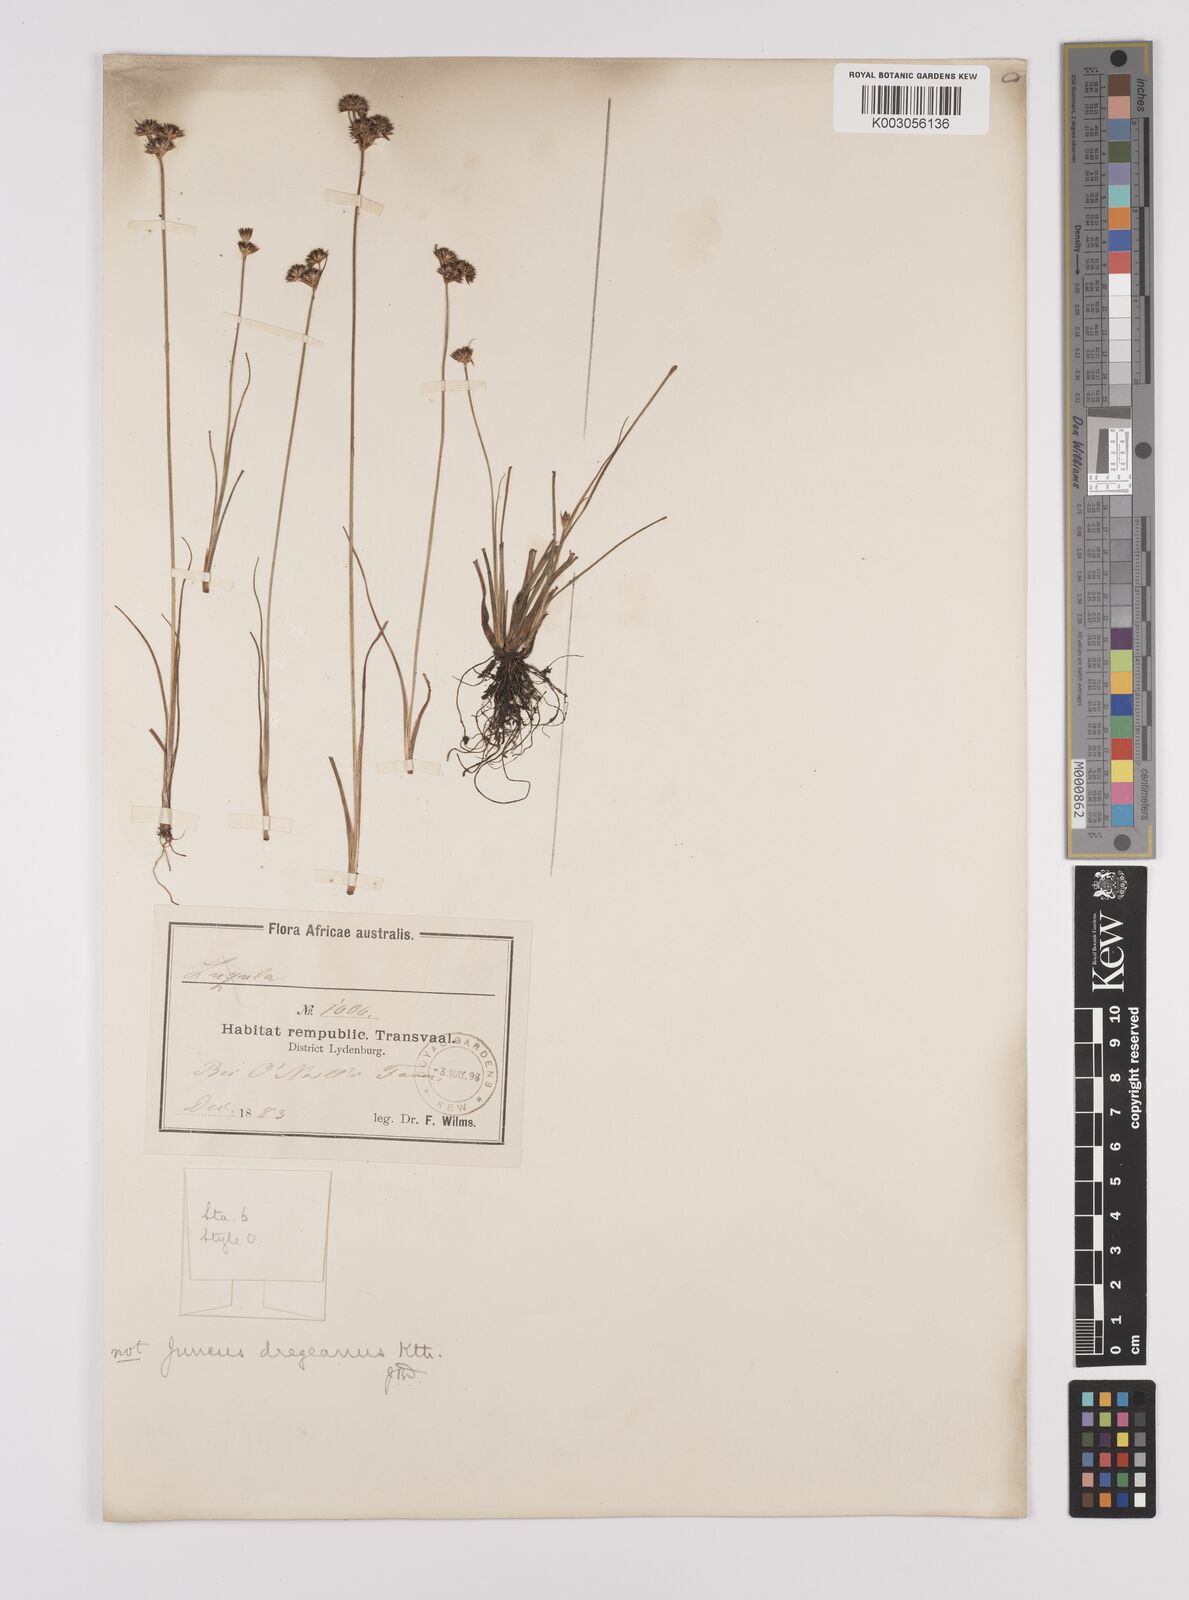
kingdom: Plantae
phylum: Tracheophyta
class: Liliopsida
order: Poales
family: Juncaceae
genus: Juncus
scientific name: Juncus
